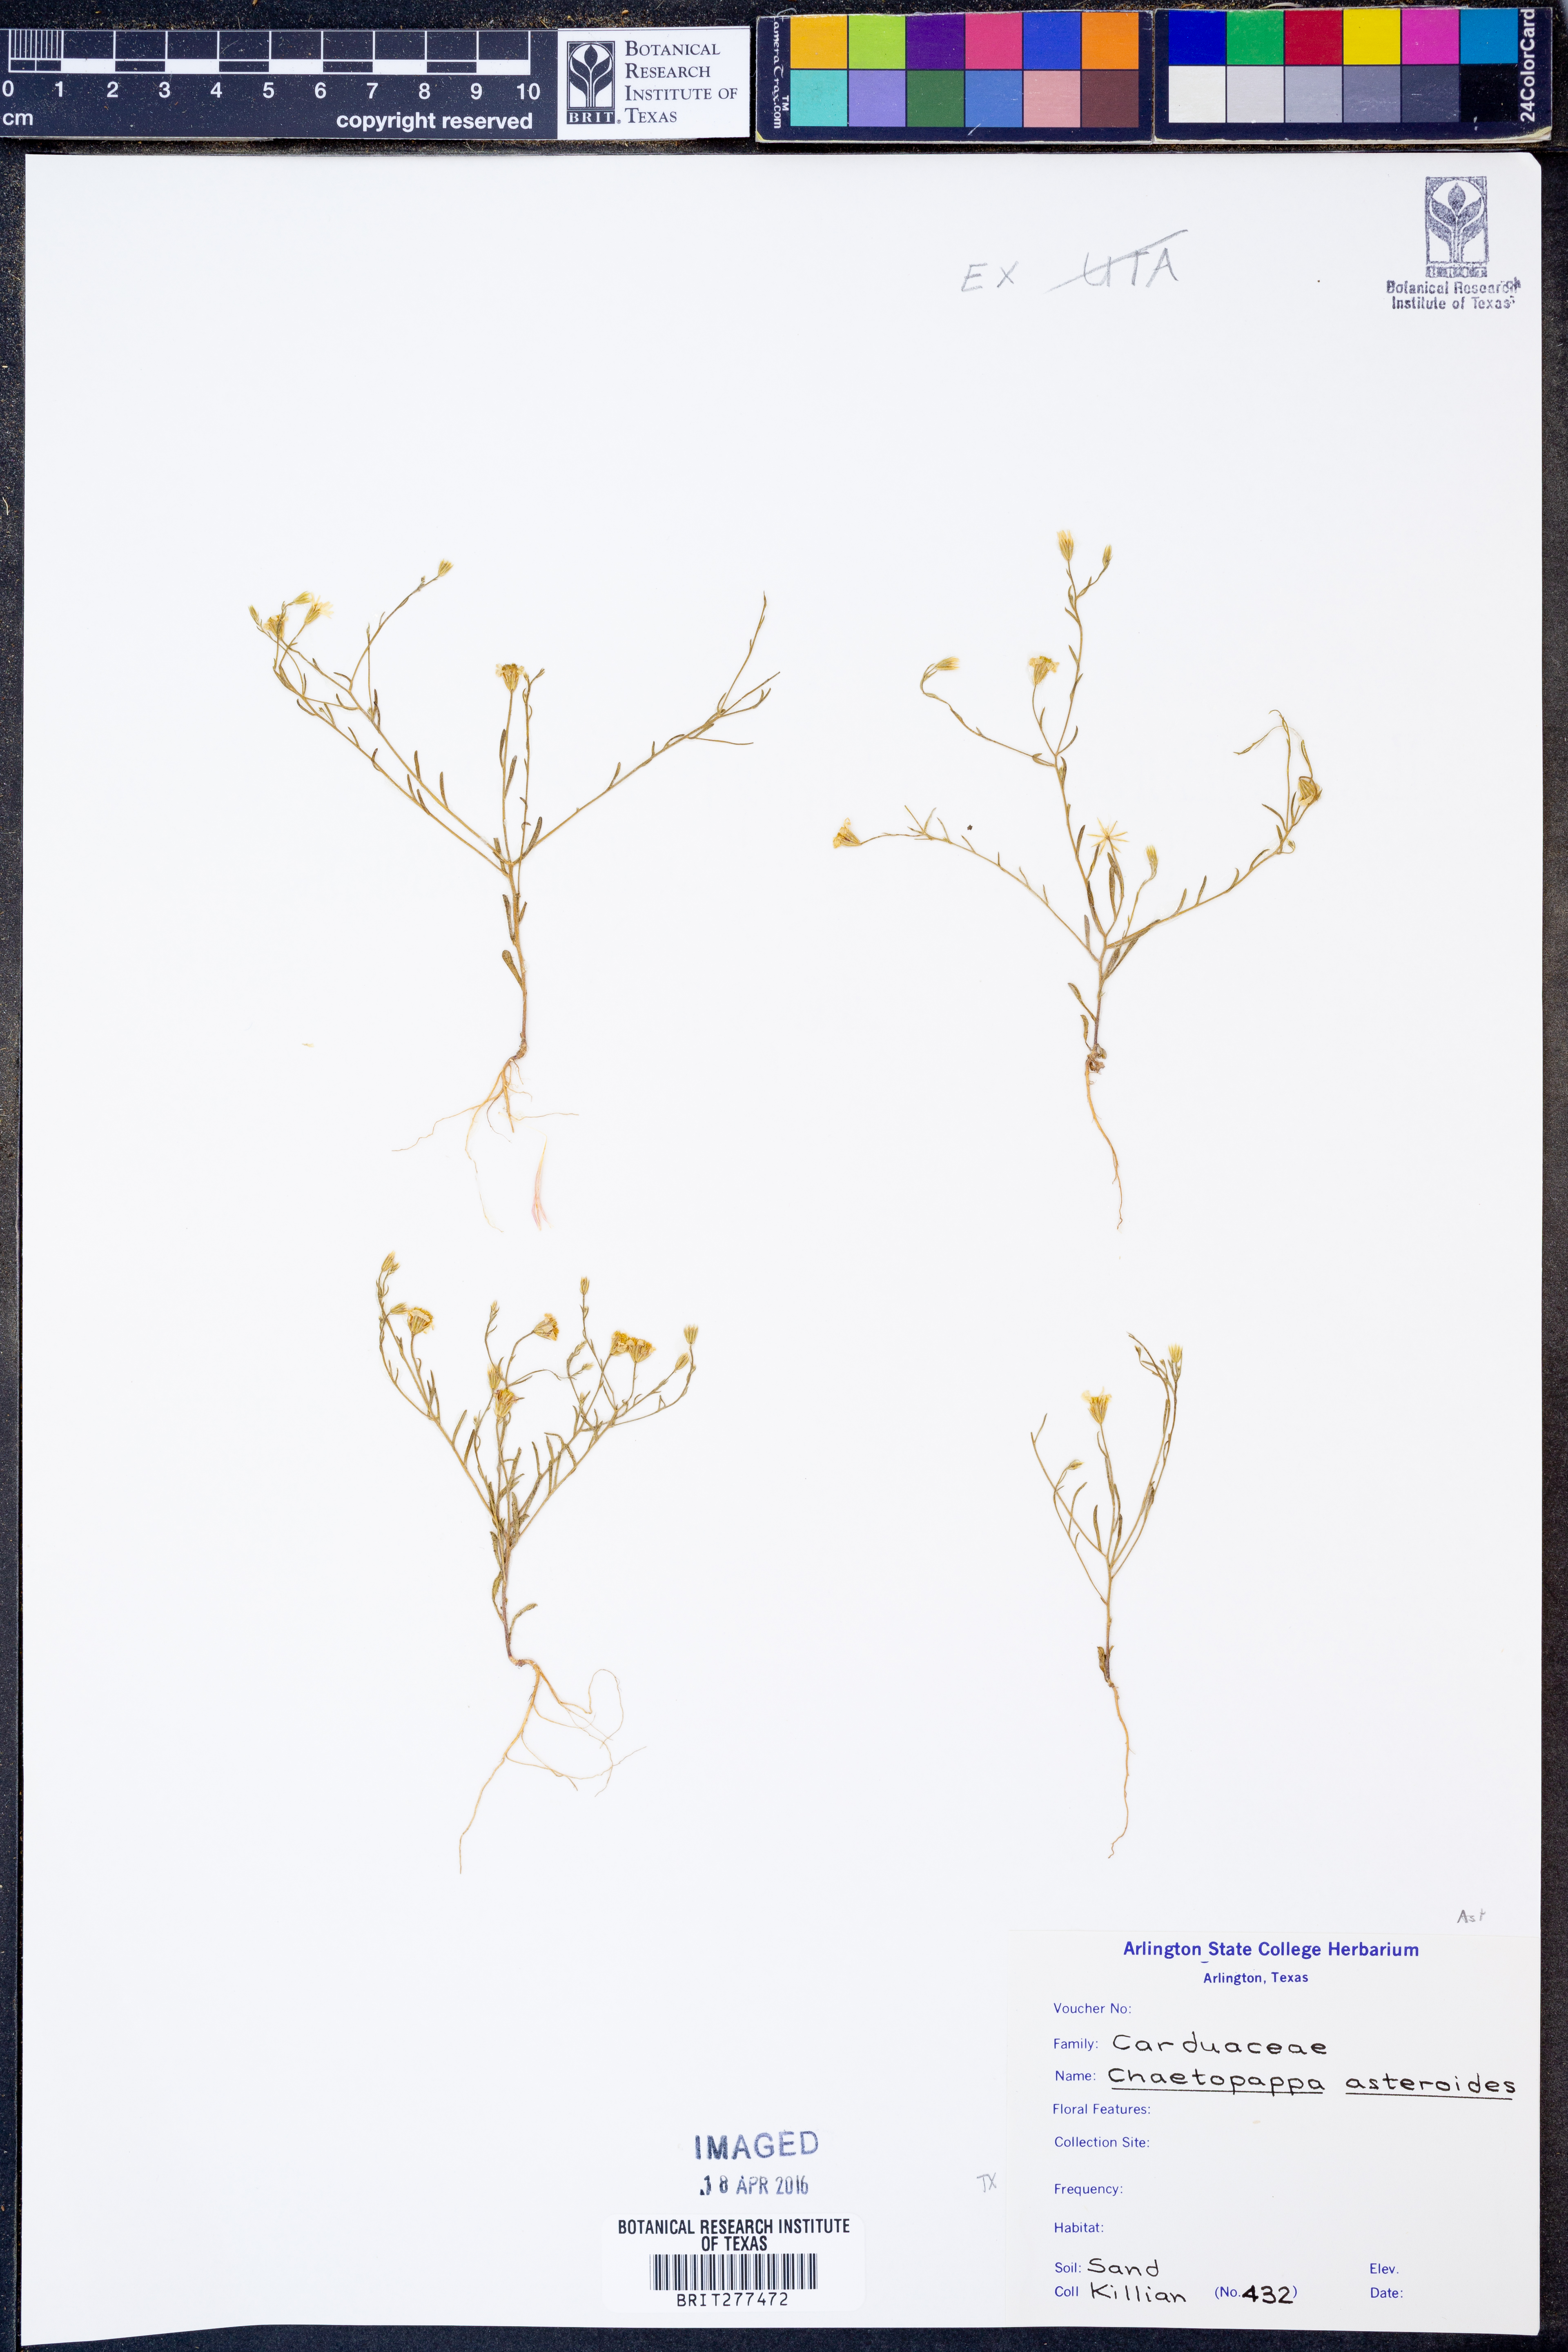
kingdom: Plantae
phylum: Tracheophyta
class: Magnoliopsida
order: Asterales
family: Asteraceae
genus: Chaetopappa
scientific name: Chaetopappa asteroides
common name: Tiny lazy daisy
